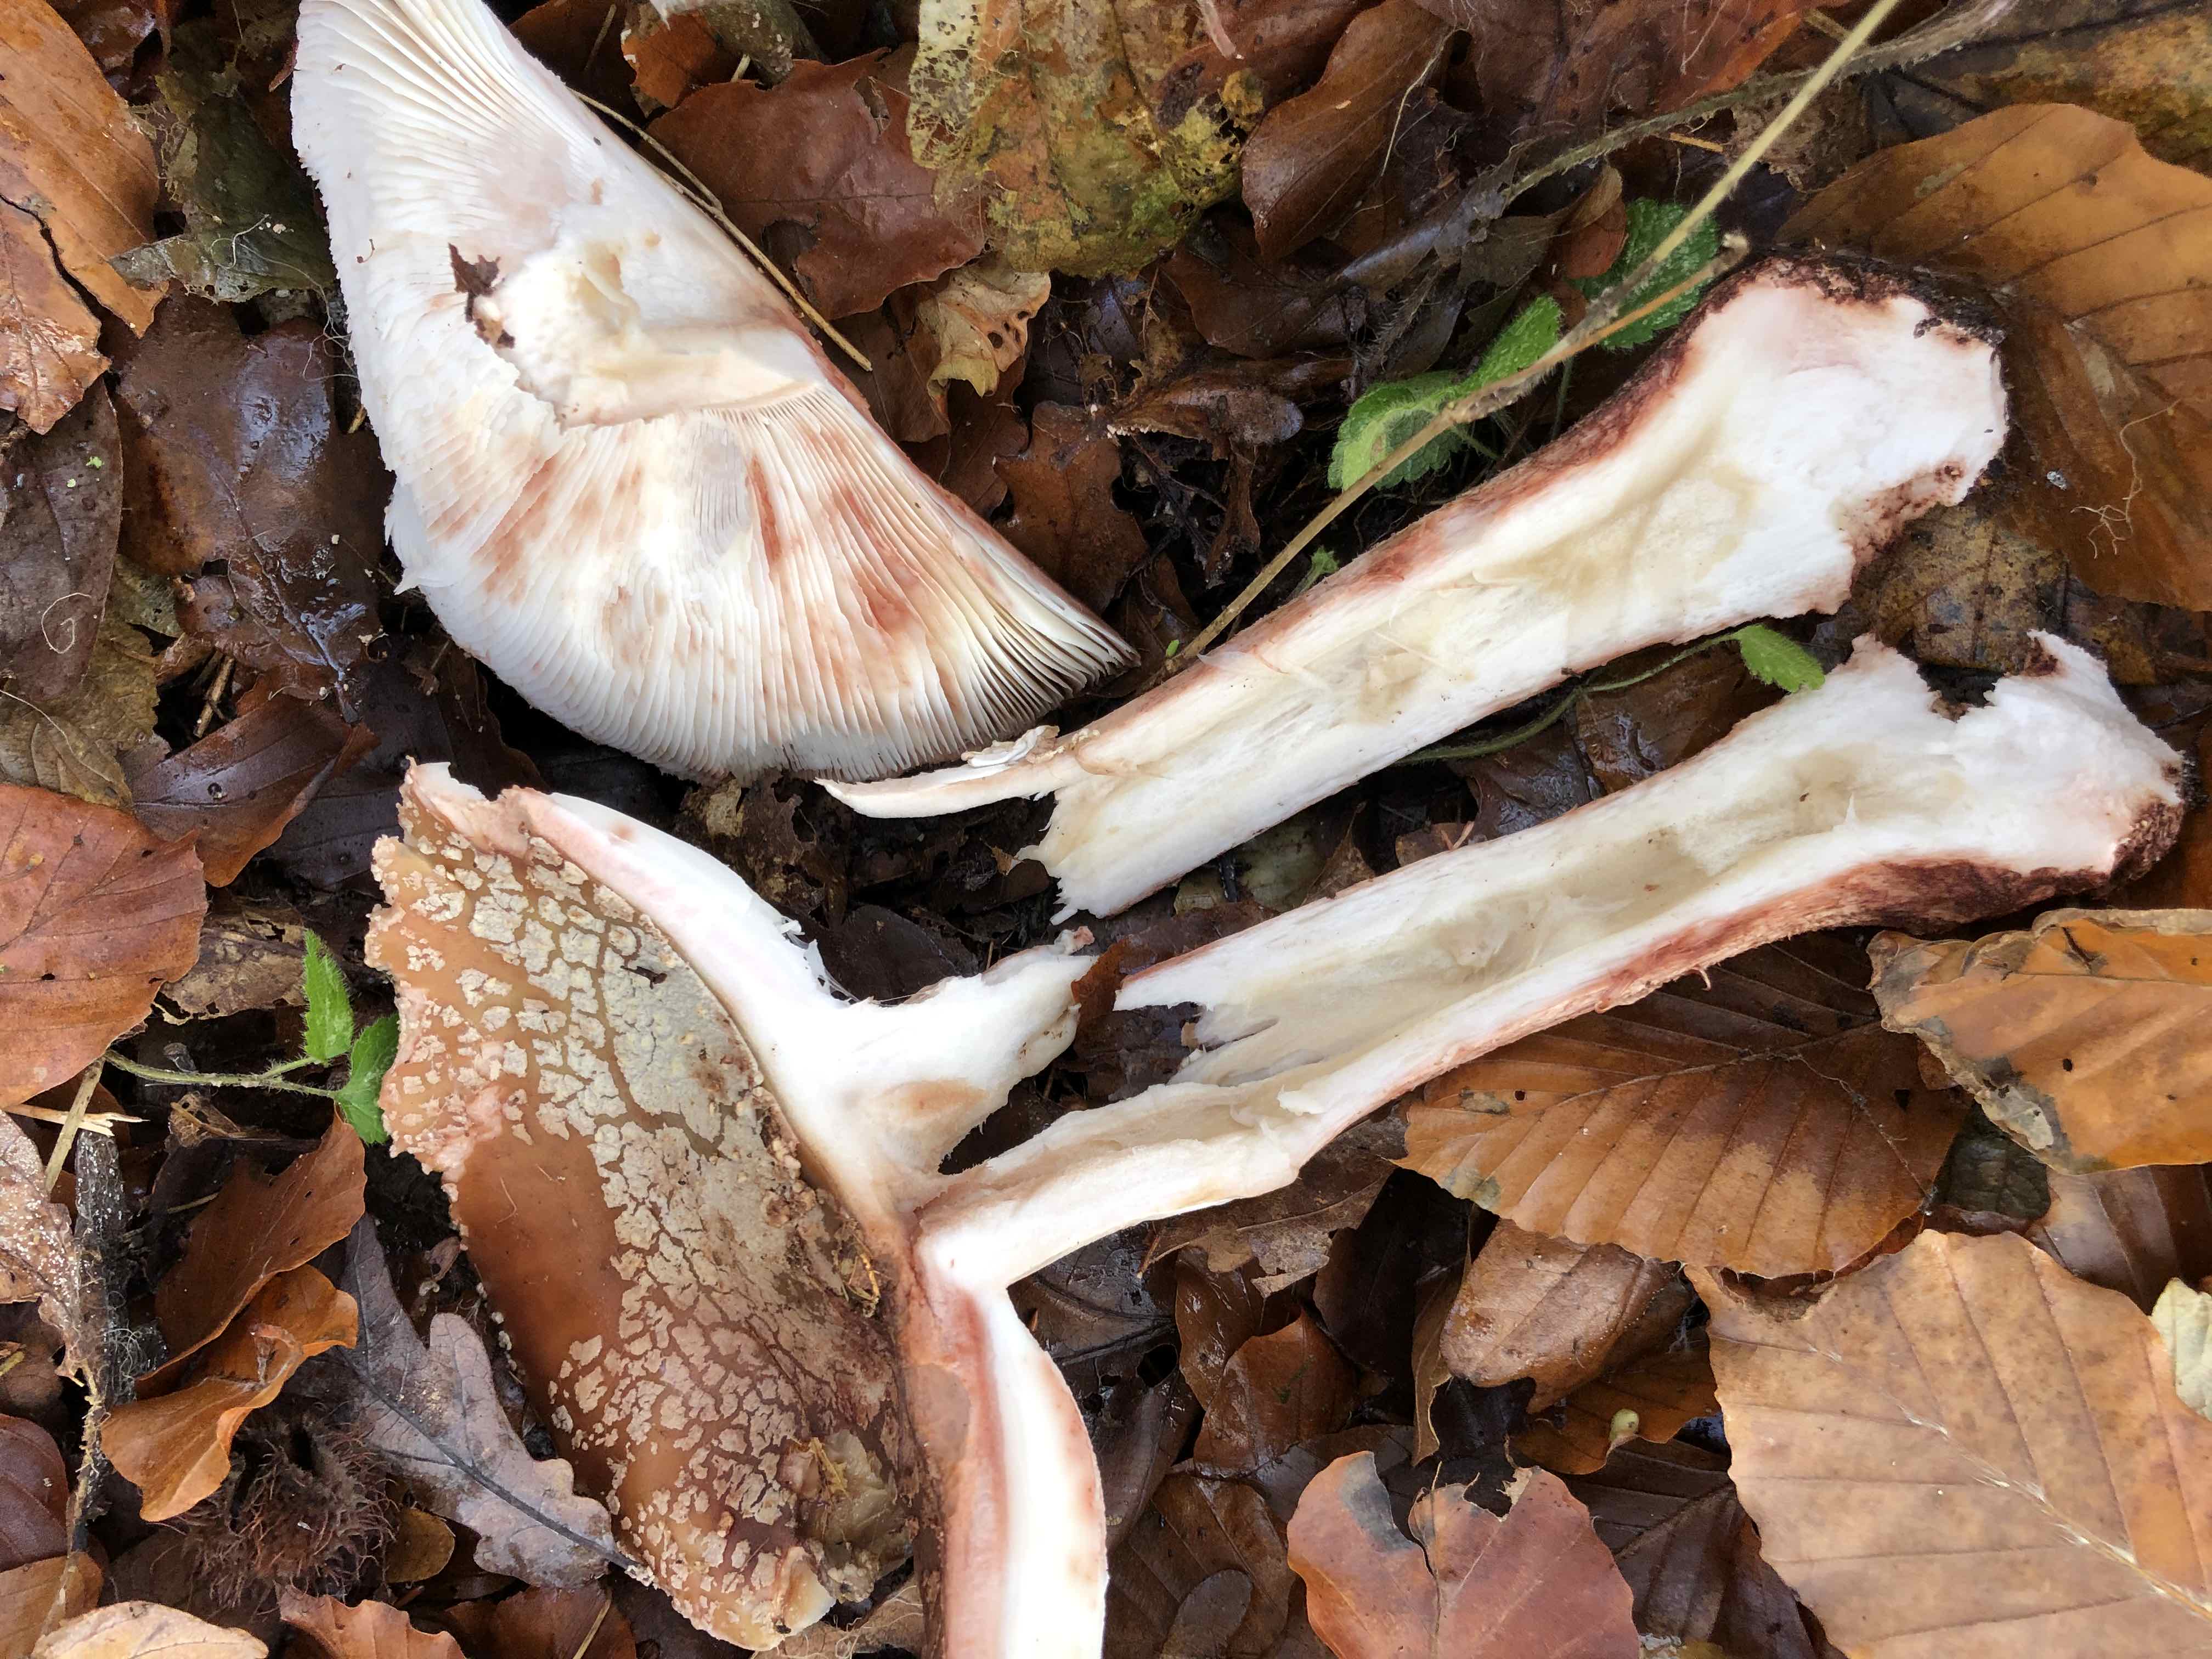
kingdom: Fungi
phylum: Basidiomycota
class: Agaricomycetes
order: Agaricales
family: Amanitaceae
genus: Amanita
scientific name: Amanita rubescens
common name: rødmende fluesvamp
